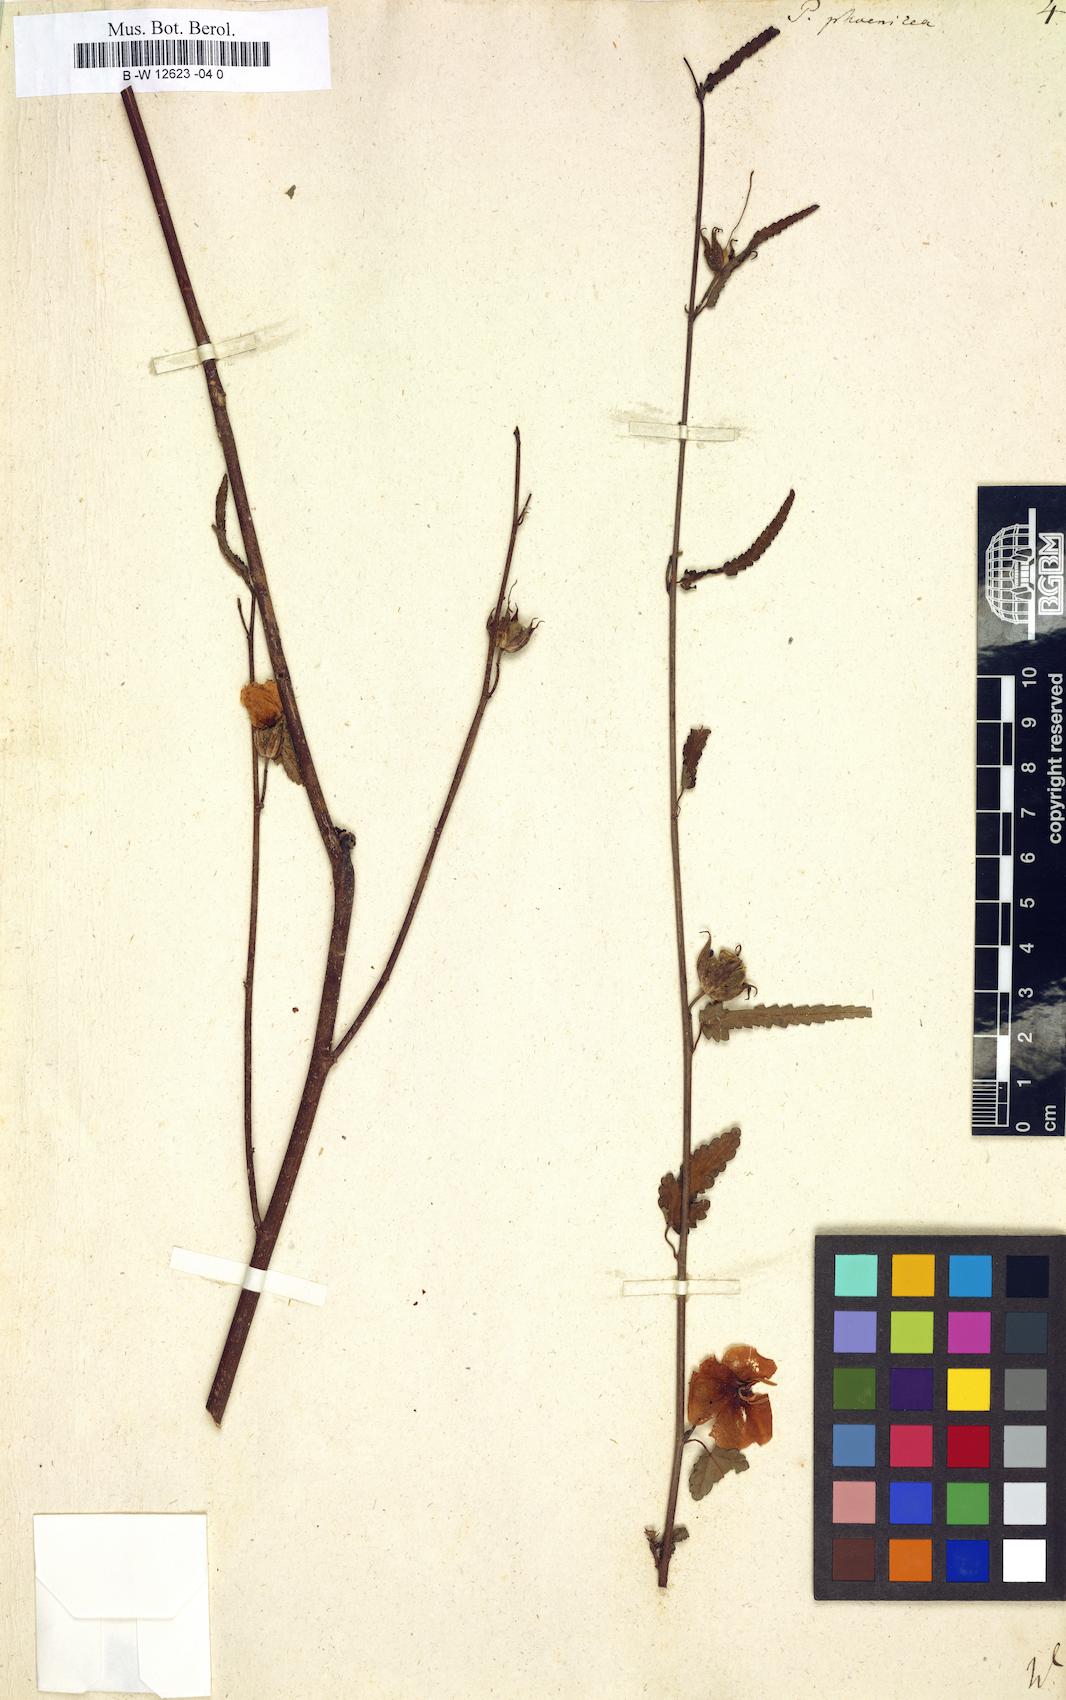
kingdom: Plantae
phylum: Tracheophyta
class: Magnoliopsida
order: Malvales
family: Malvaceae
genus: Pentapetes
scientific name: Pentapetes phoenicea
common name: Copper-cups
